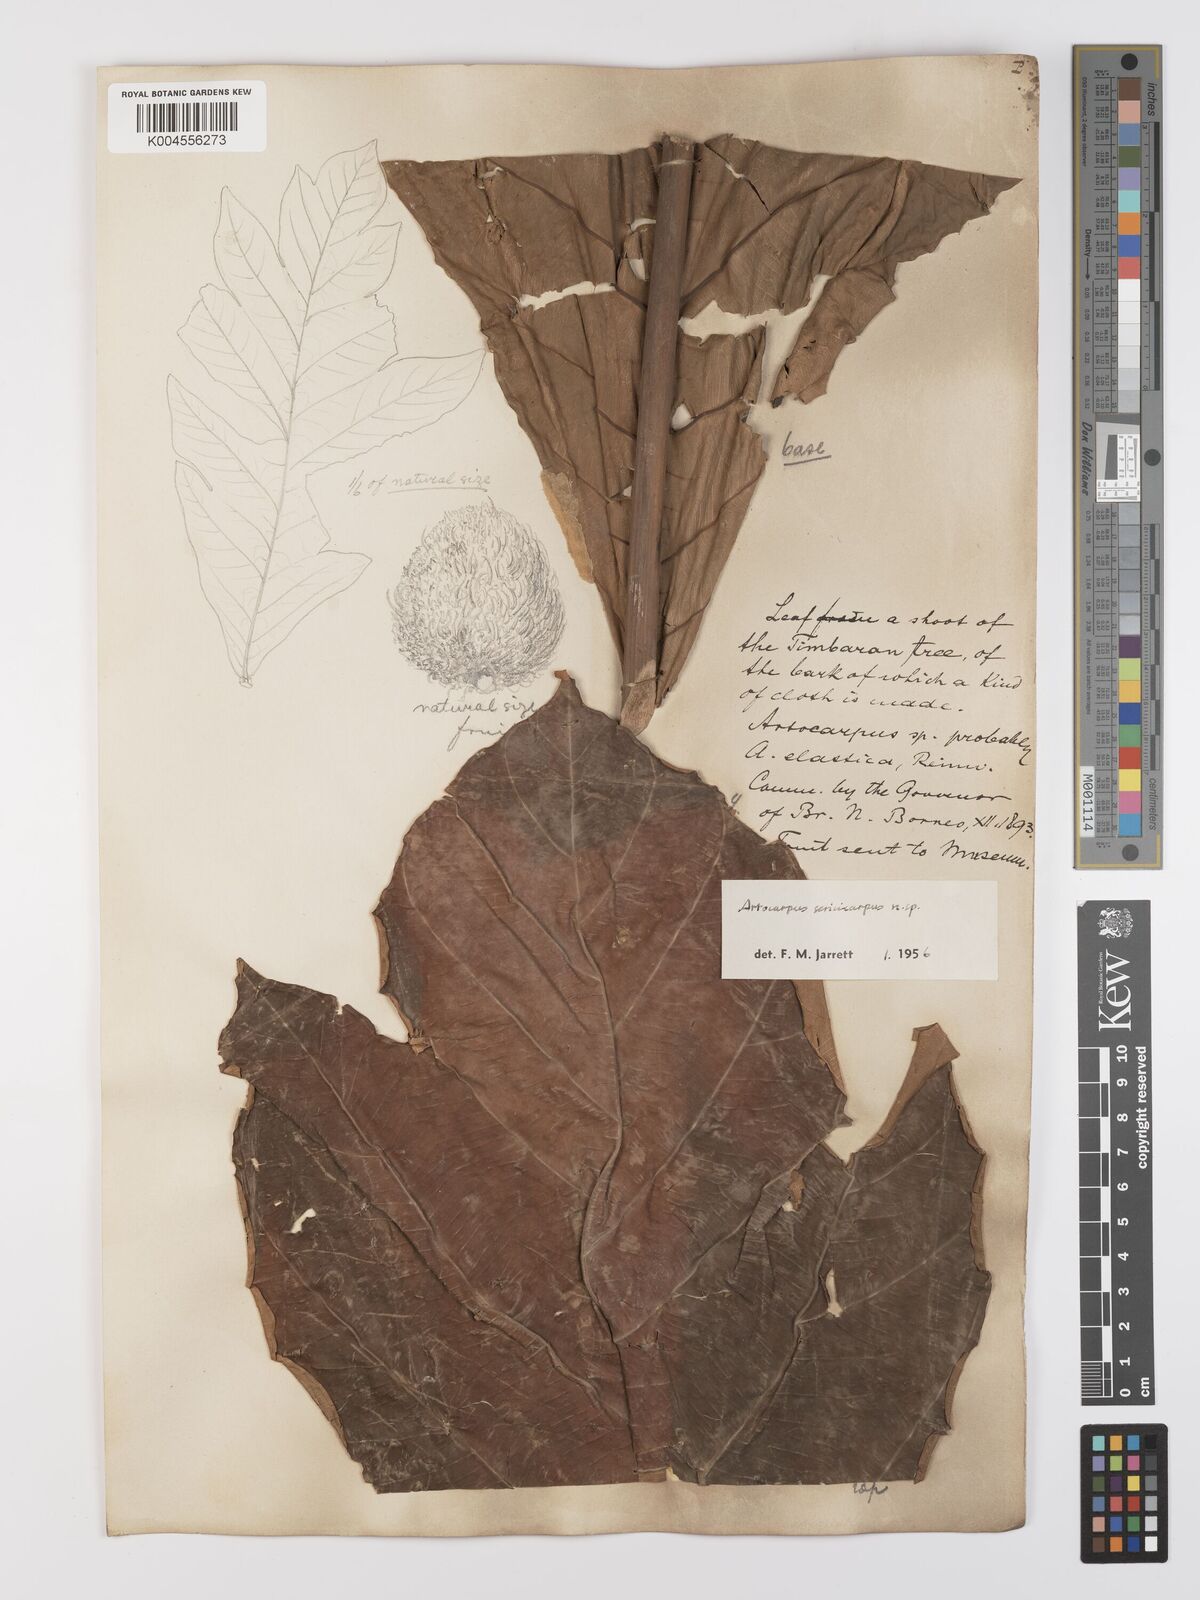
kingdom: Plantae
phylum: Tracheophyta
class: Magnoliopsida
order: Rosales
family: Moraceae
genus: Artocarpus
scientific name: Artocarpus sericicarpus
